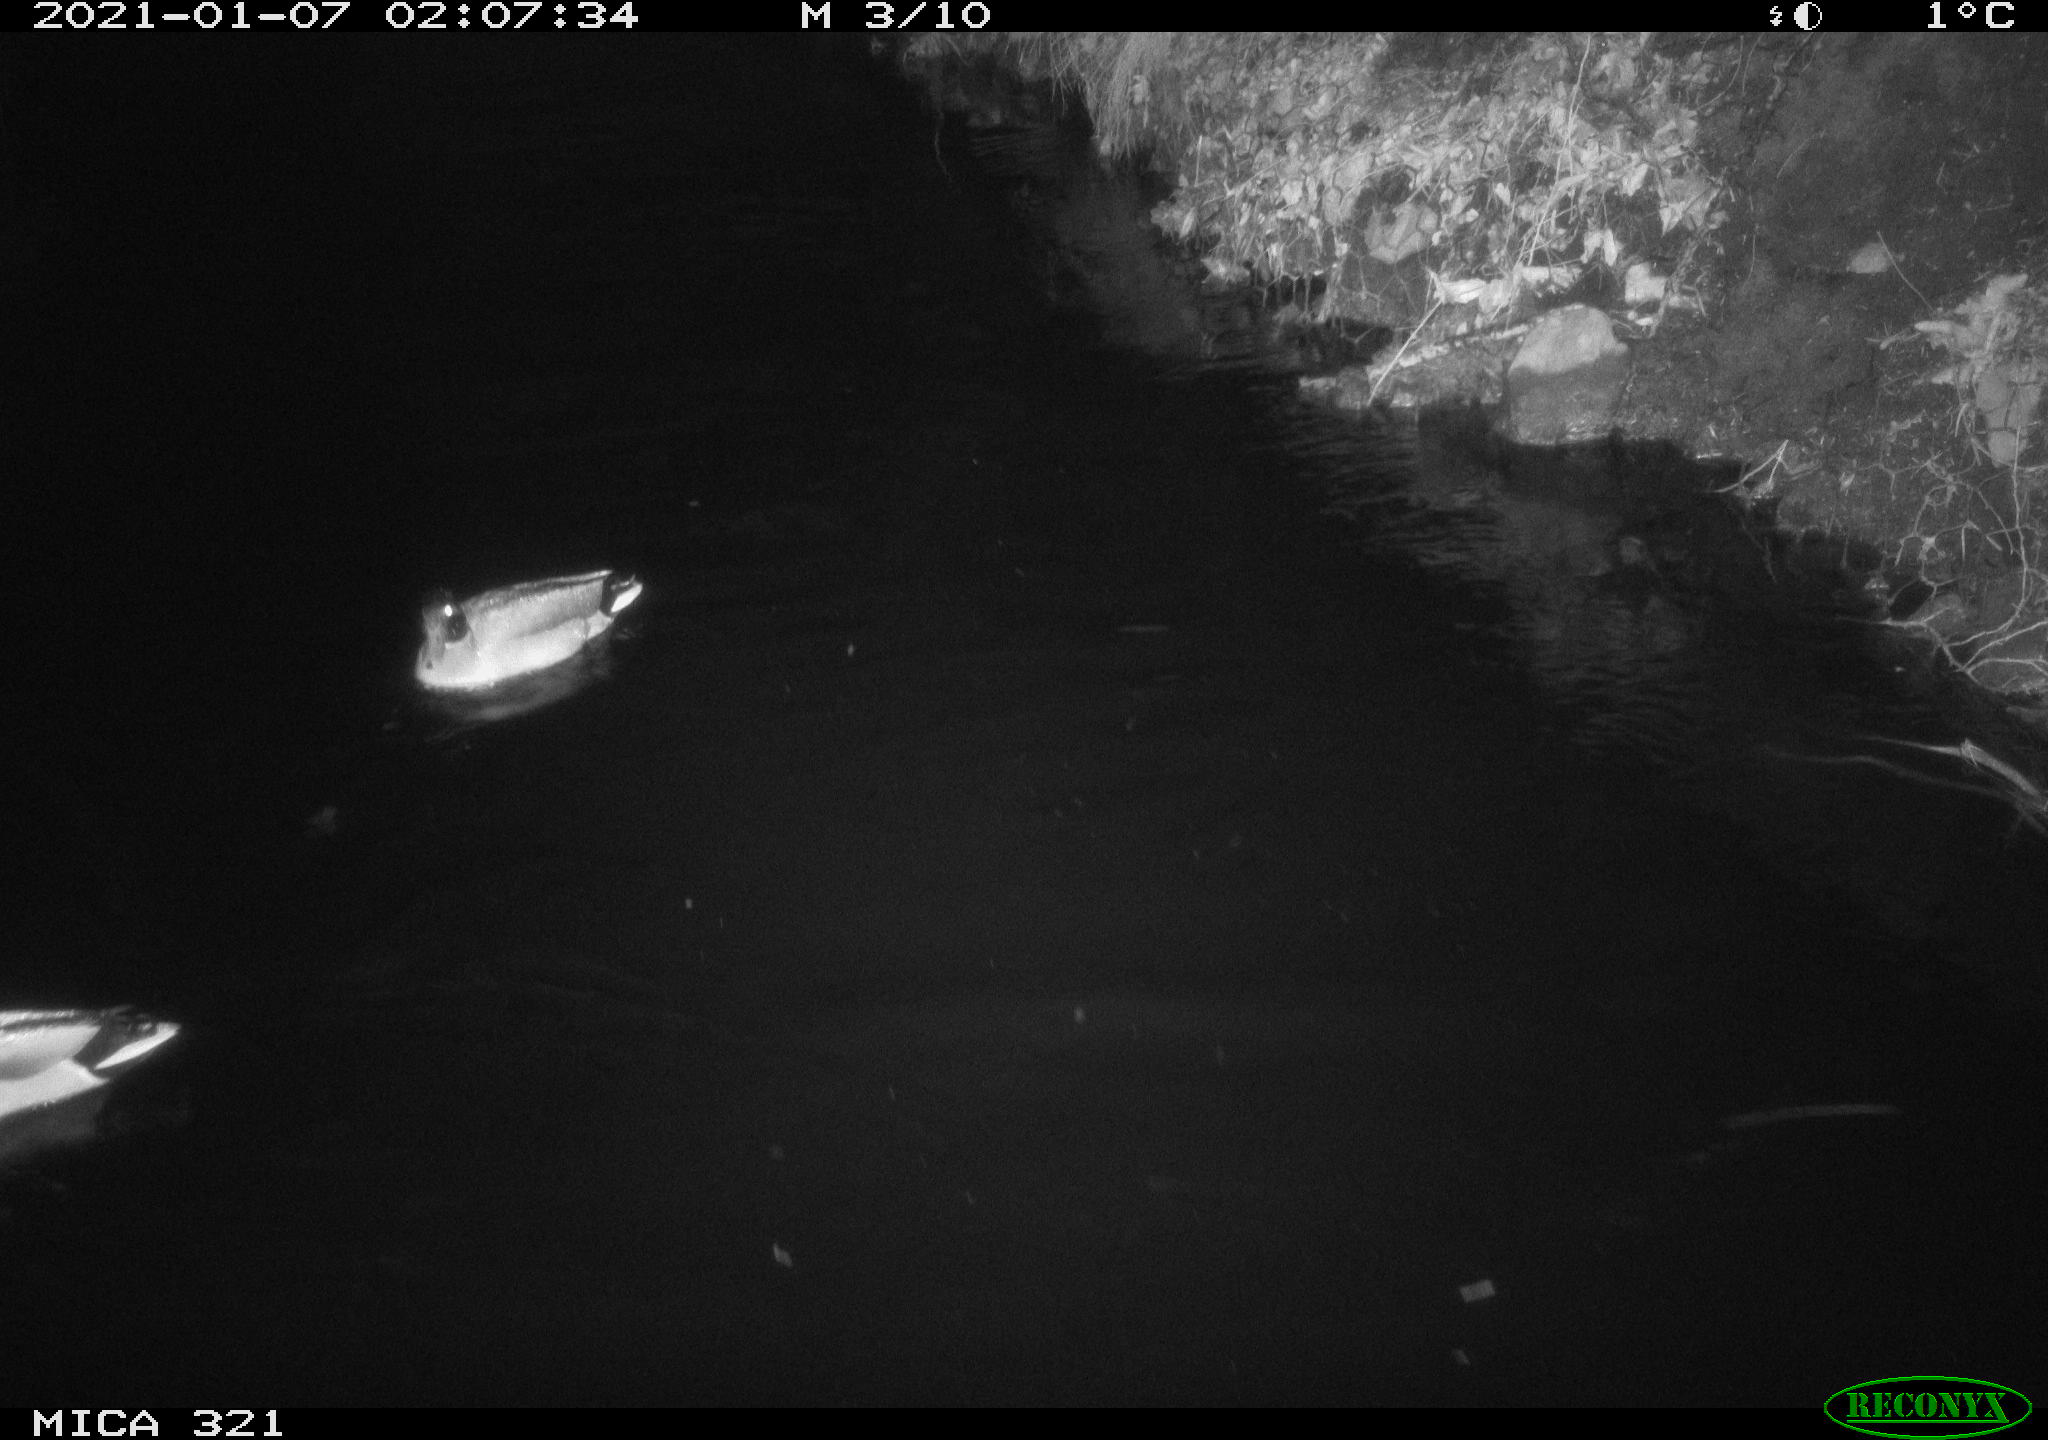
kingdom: Animalia
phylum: Chordata
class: Aves
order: Anseriformes
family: Anatidae
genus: Anas
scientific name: Anas platyrhynchos
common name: Mallard
